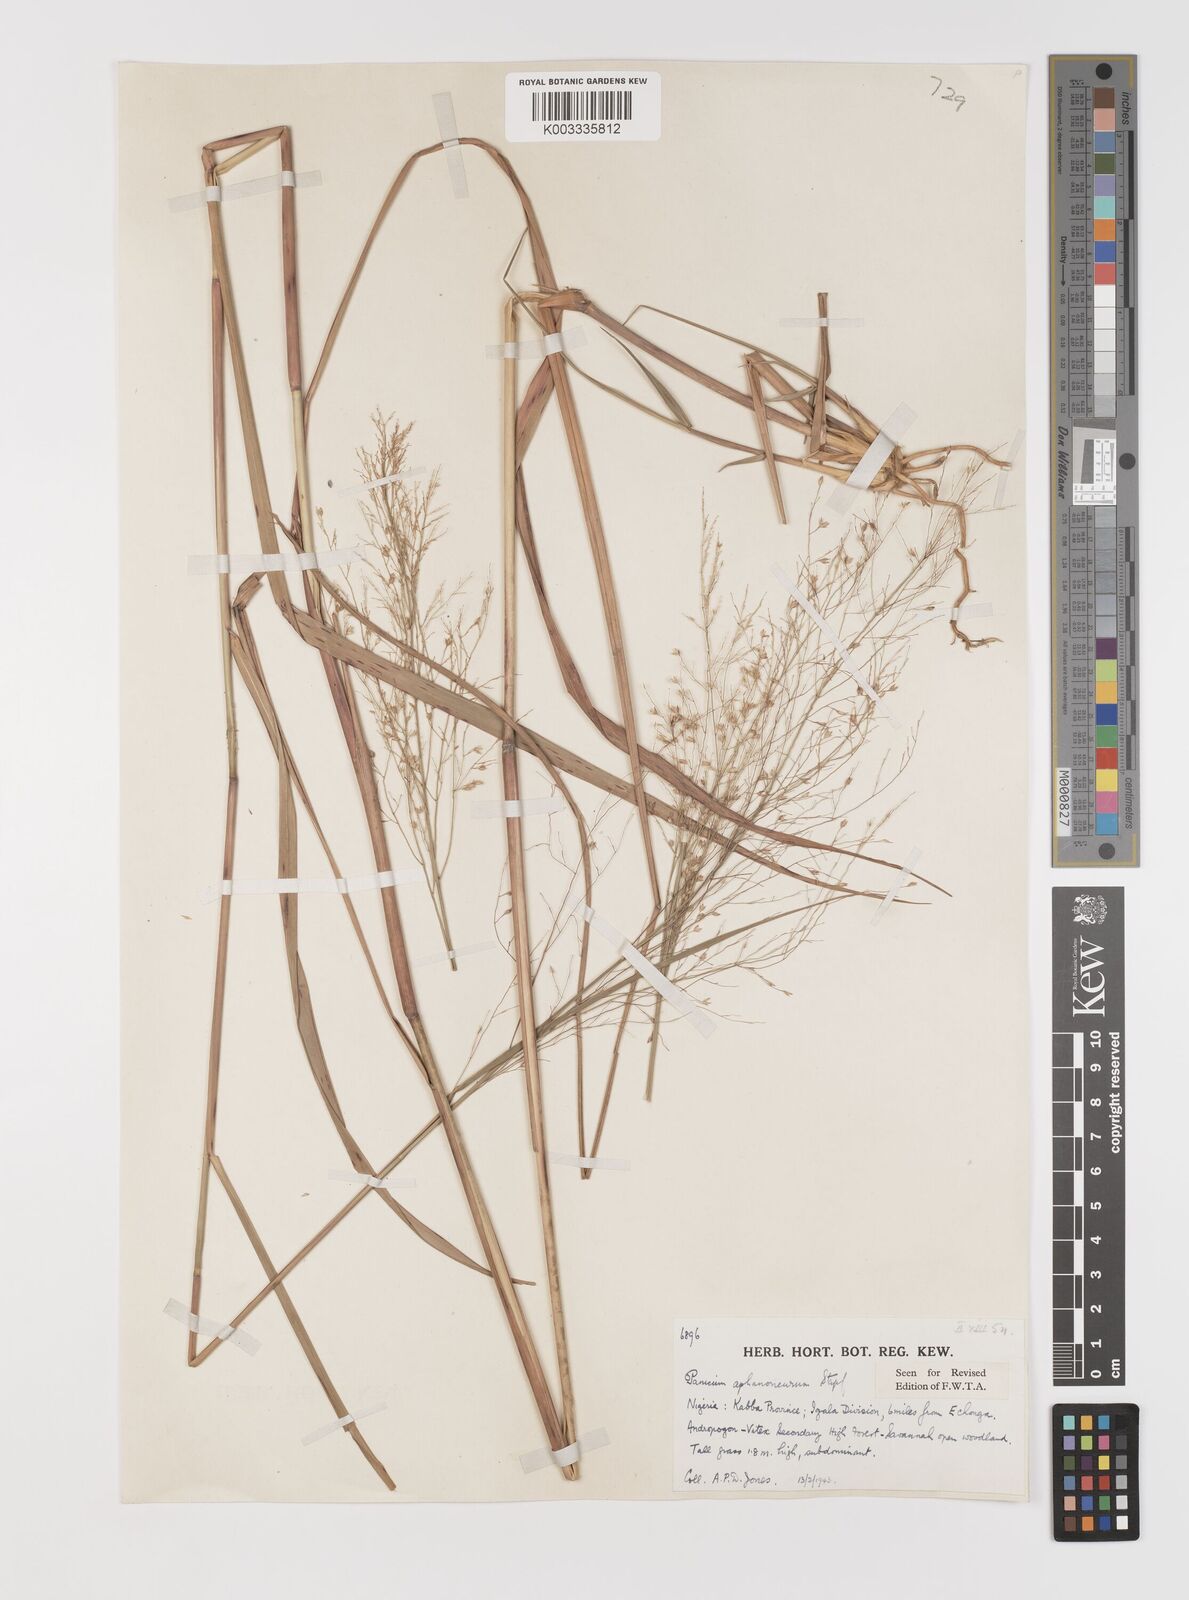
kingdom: Plantae
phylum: Tracheophyta
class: Liliopsida
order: Poales
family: Poaceae
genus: Panicum
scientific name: Panicum fluviicola
